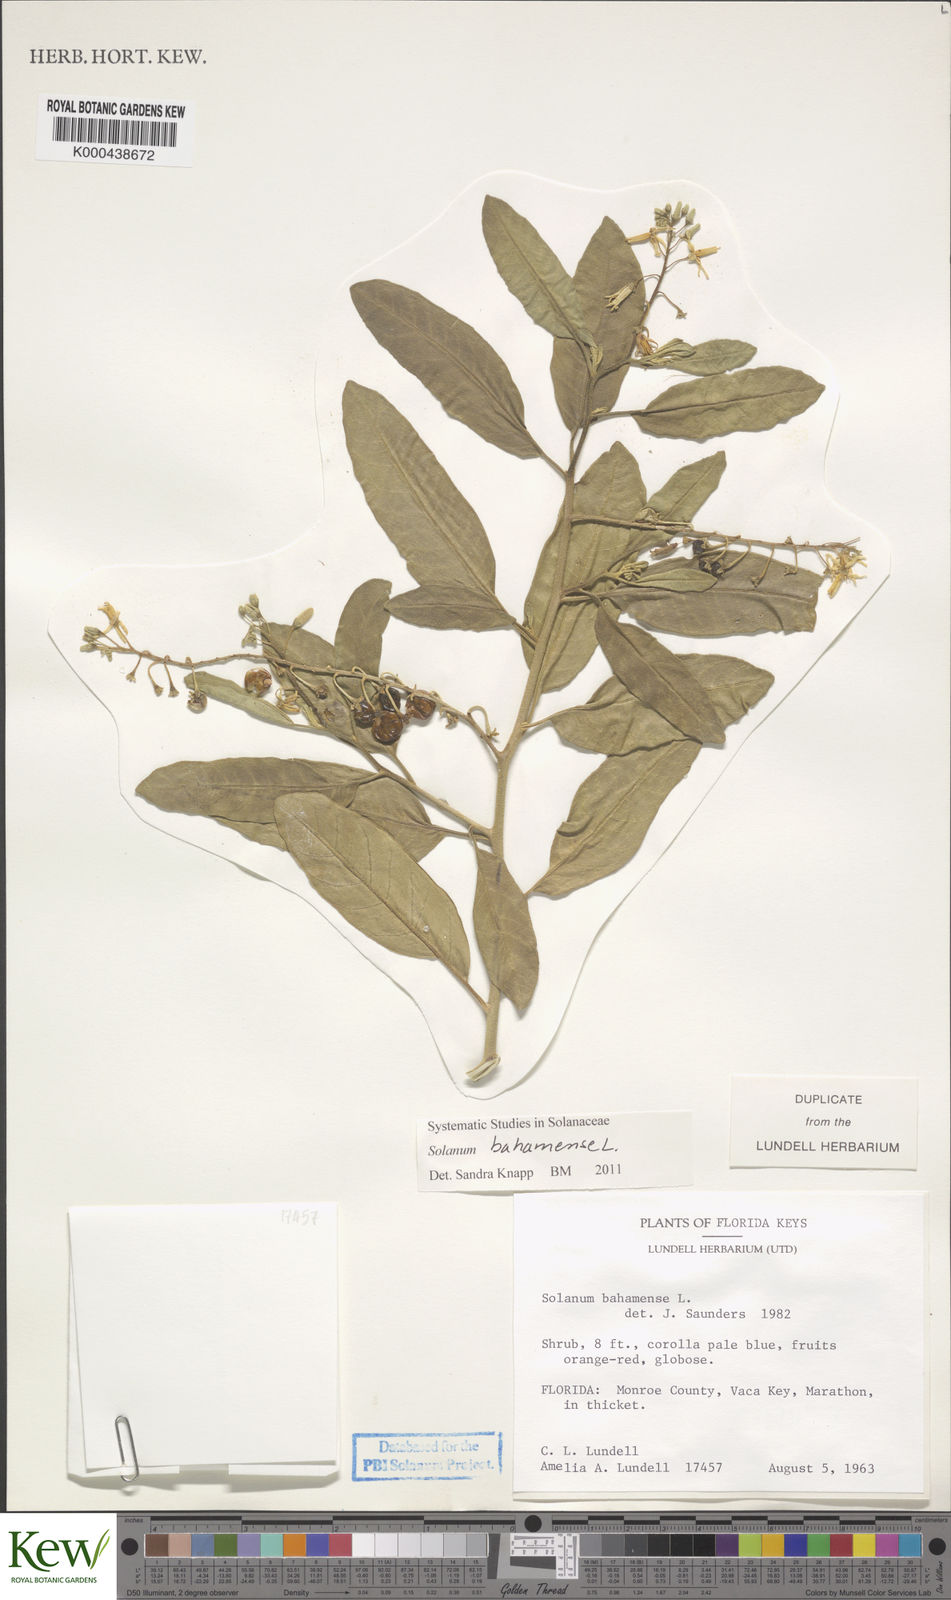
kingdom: Plantae
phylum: Tracheophyta
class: Magnoliopsida
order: Solanales
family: Solanaceae
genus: Solanum
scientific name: Solanum bahamense
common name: Canker-berry
